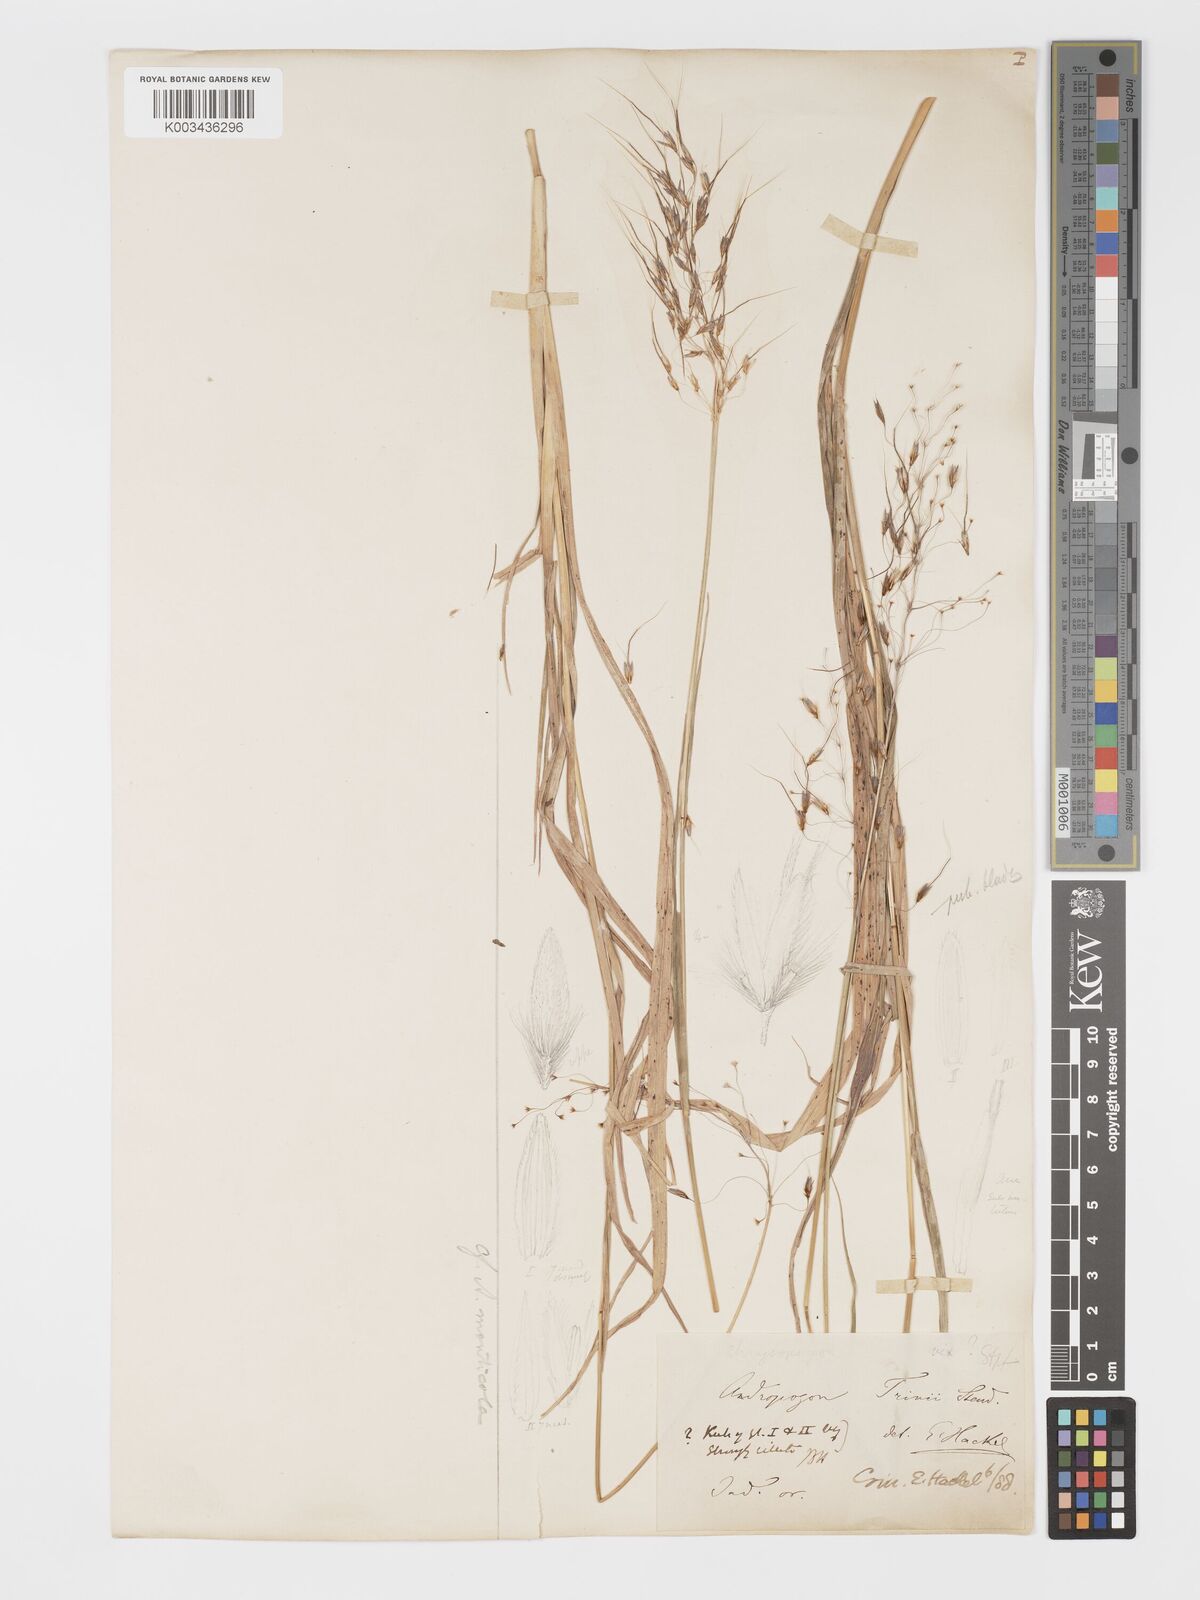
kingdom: Plantae
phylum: Tracheophyta
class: Liliopsida
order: Poales
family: Poaceae
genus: Chrysopogon
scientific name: Chrysopogon fulvus
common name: Red false beardgrass
